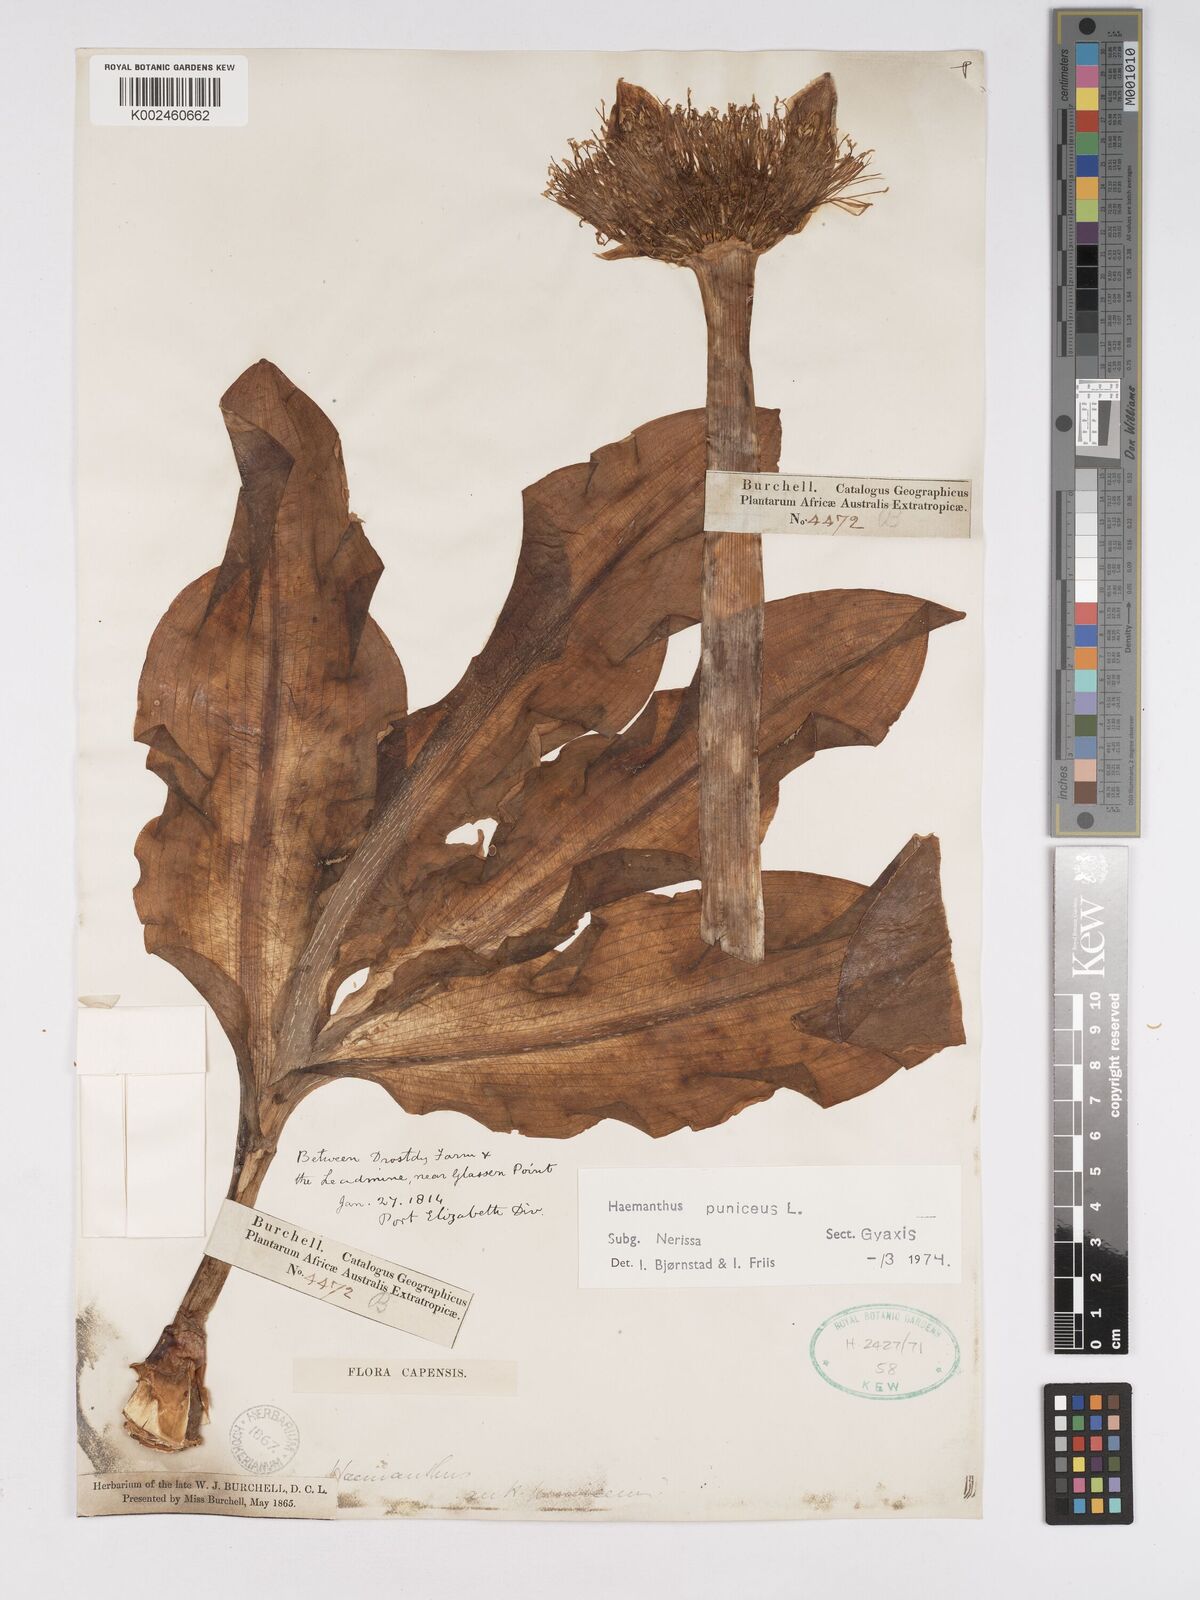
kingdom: Plantae
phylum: Tracheophyta
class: Liliopsida
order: Asparagales
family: Amaryllidaceae
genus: Scadoxus
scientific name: Scadoxus puniceus
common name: Royal-paintbrush
